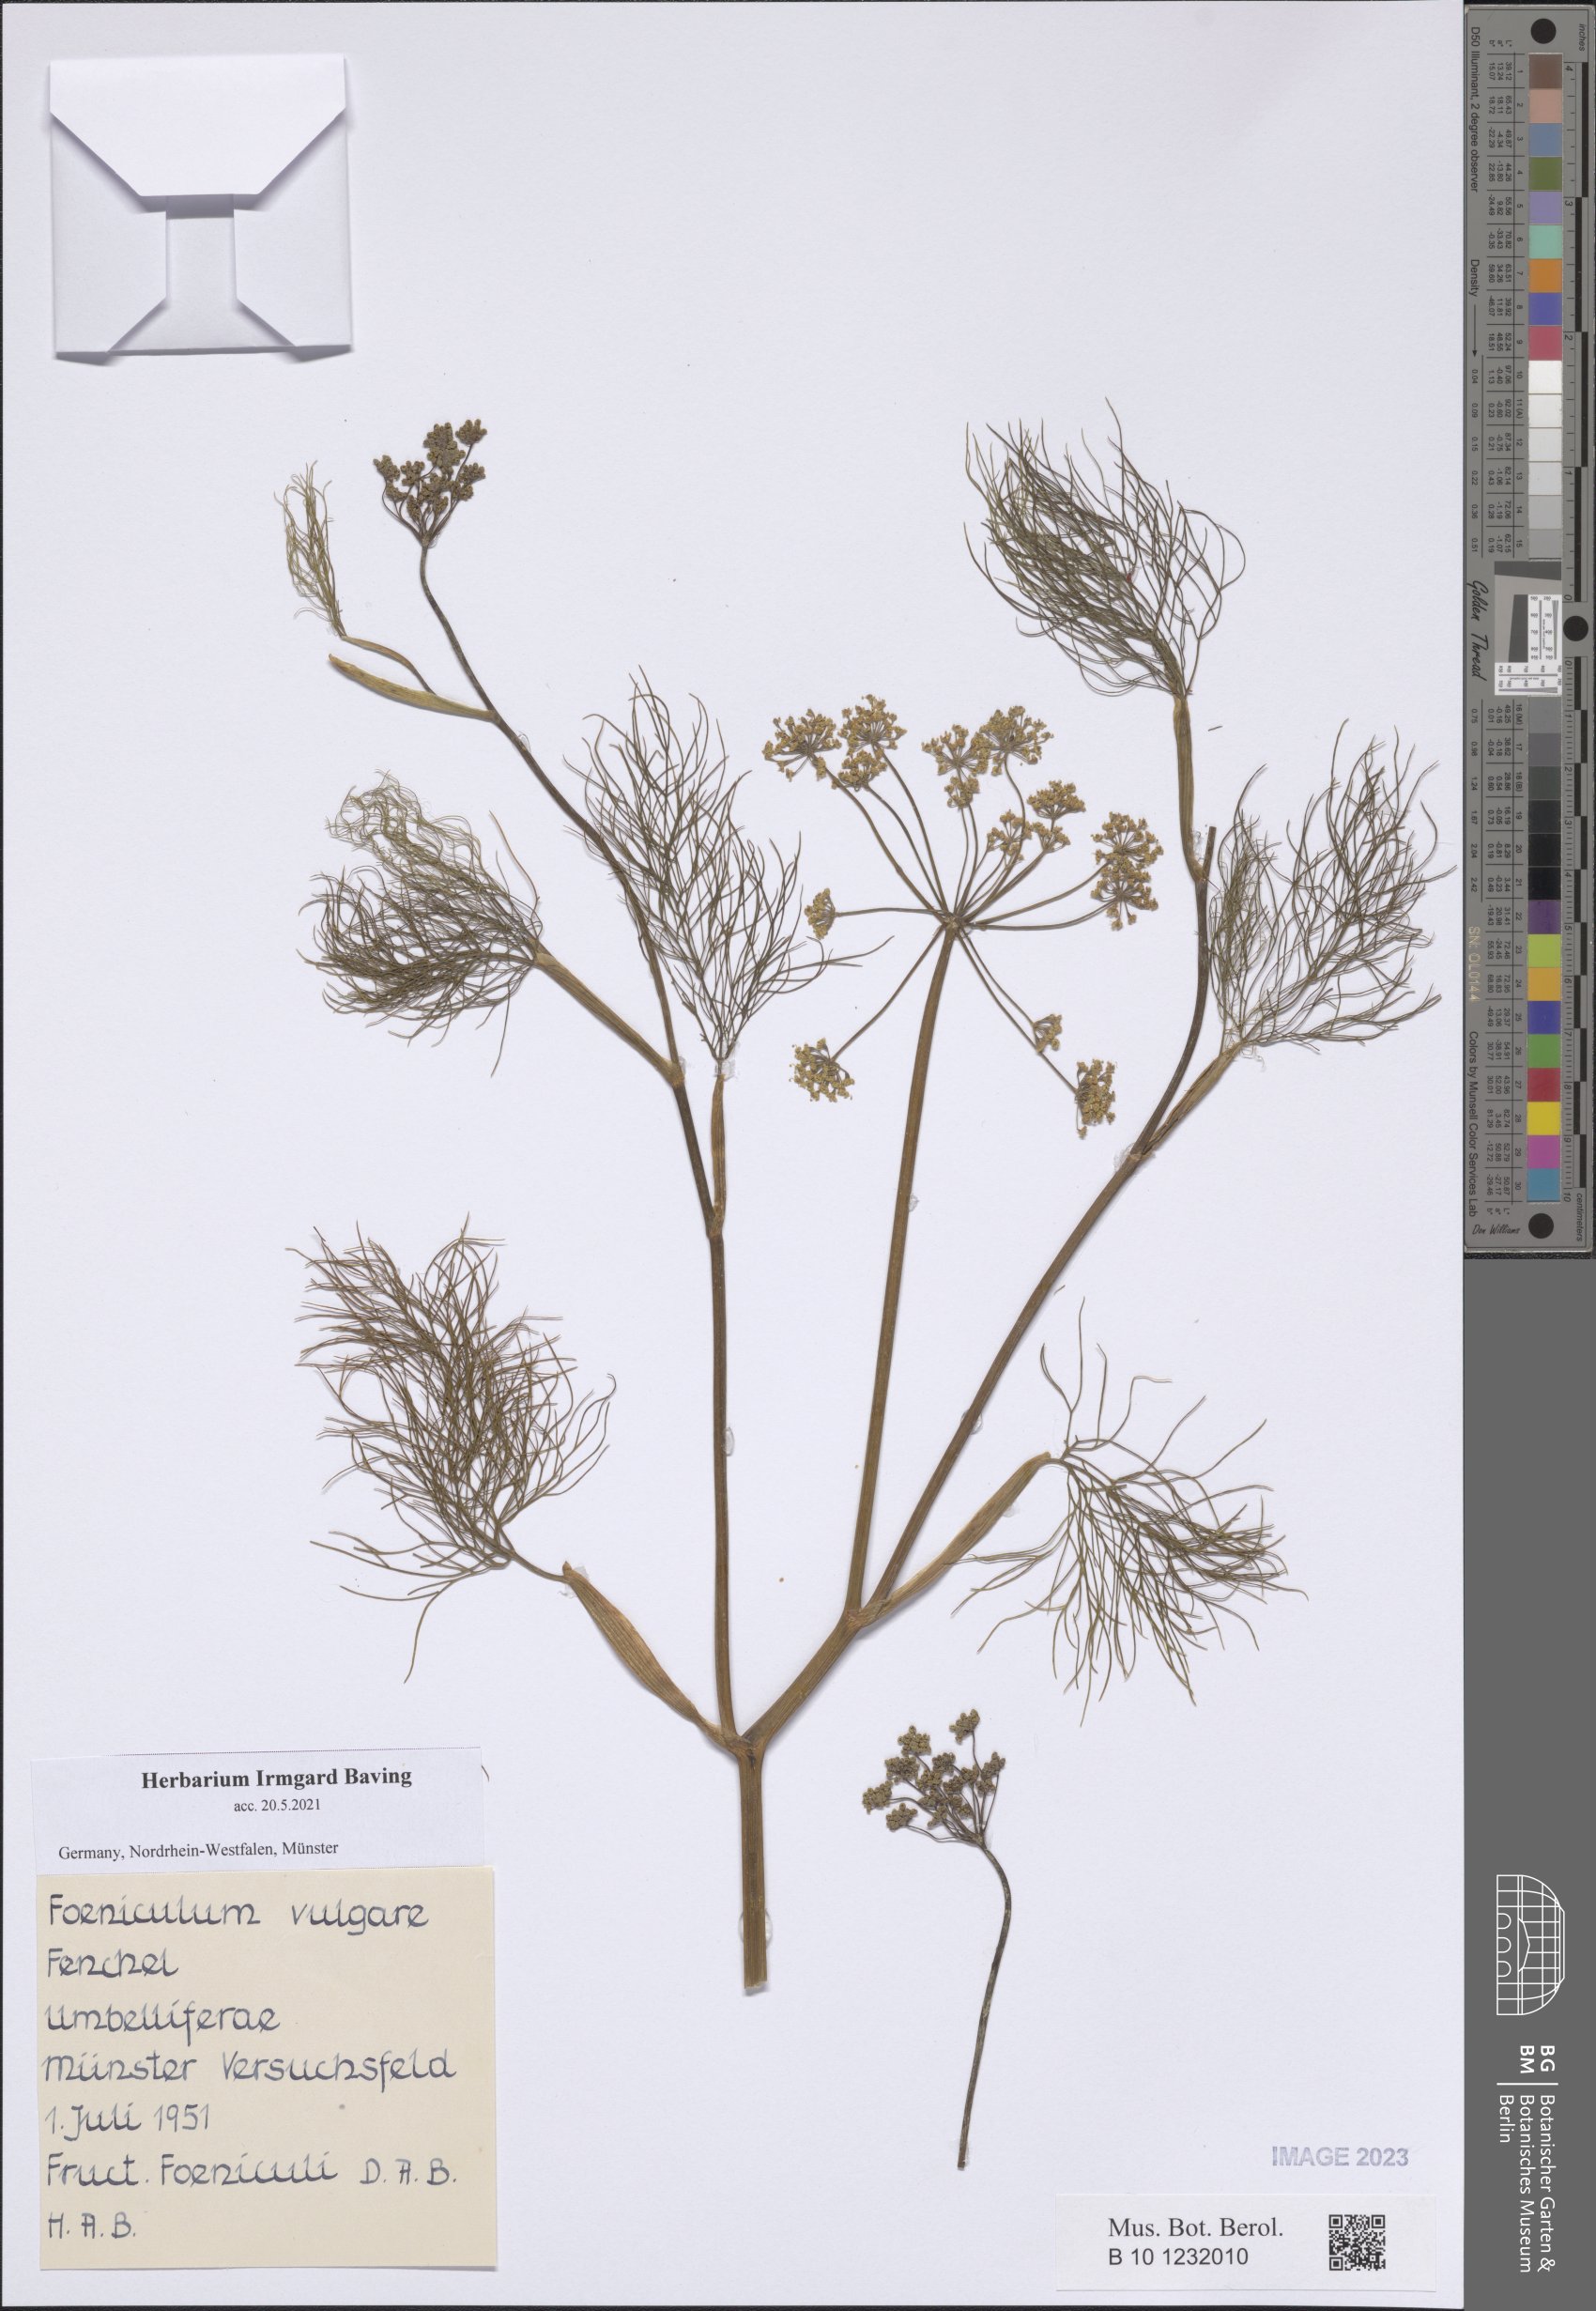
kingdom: Plantae
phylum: Tracheophyta
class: Magnoliopsida
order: Apiales
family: Apiaceae
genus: Foeniculum
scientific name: Foeniculum vulgare
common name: Fennel
